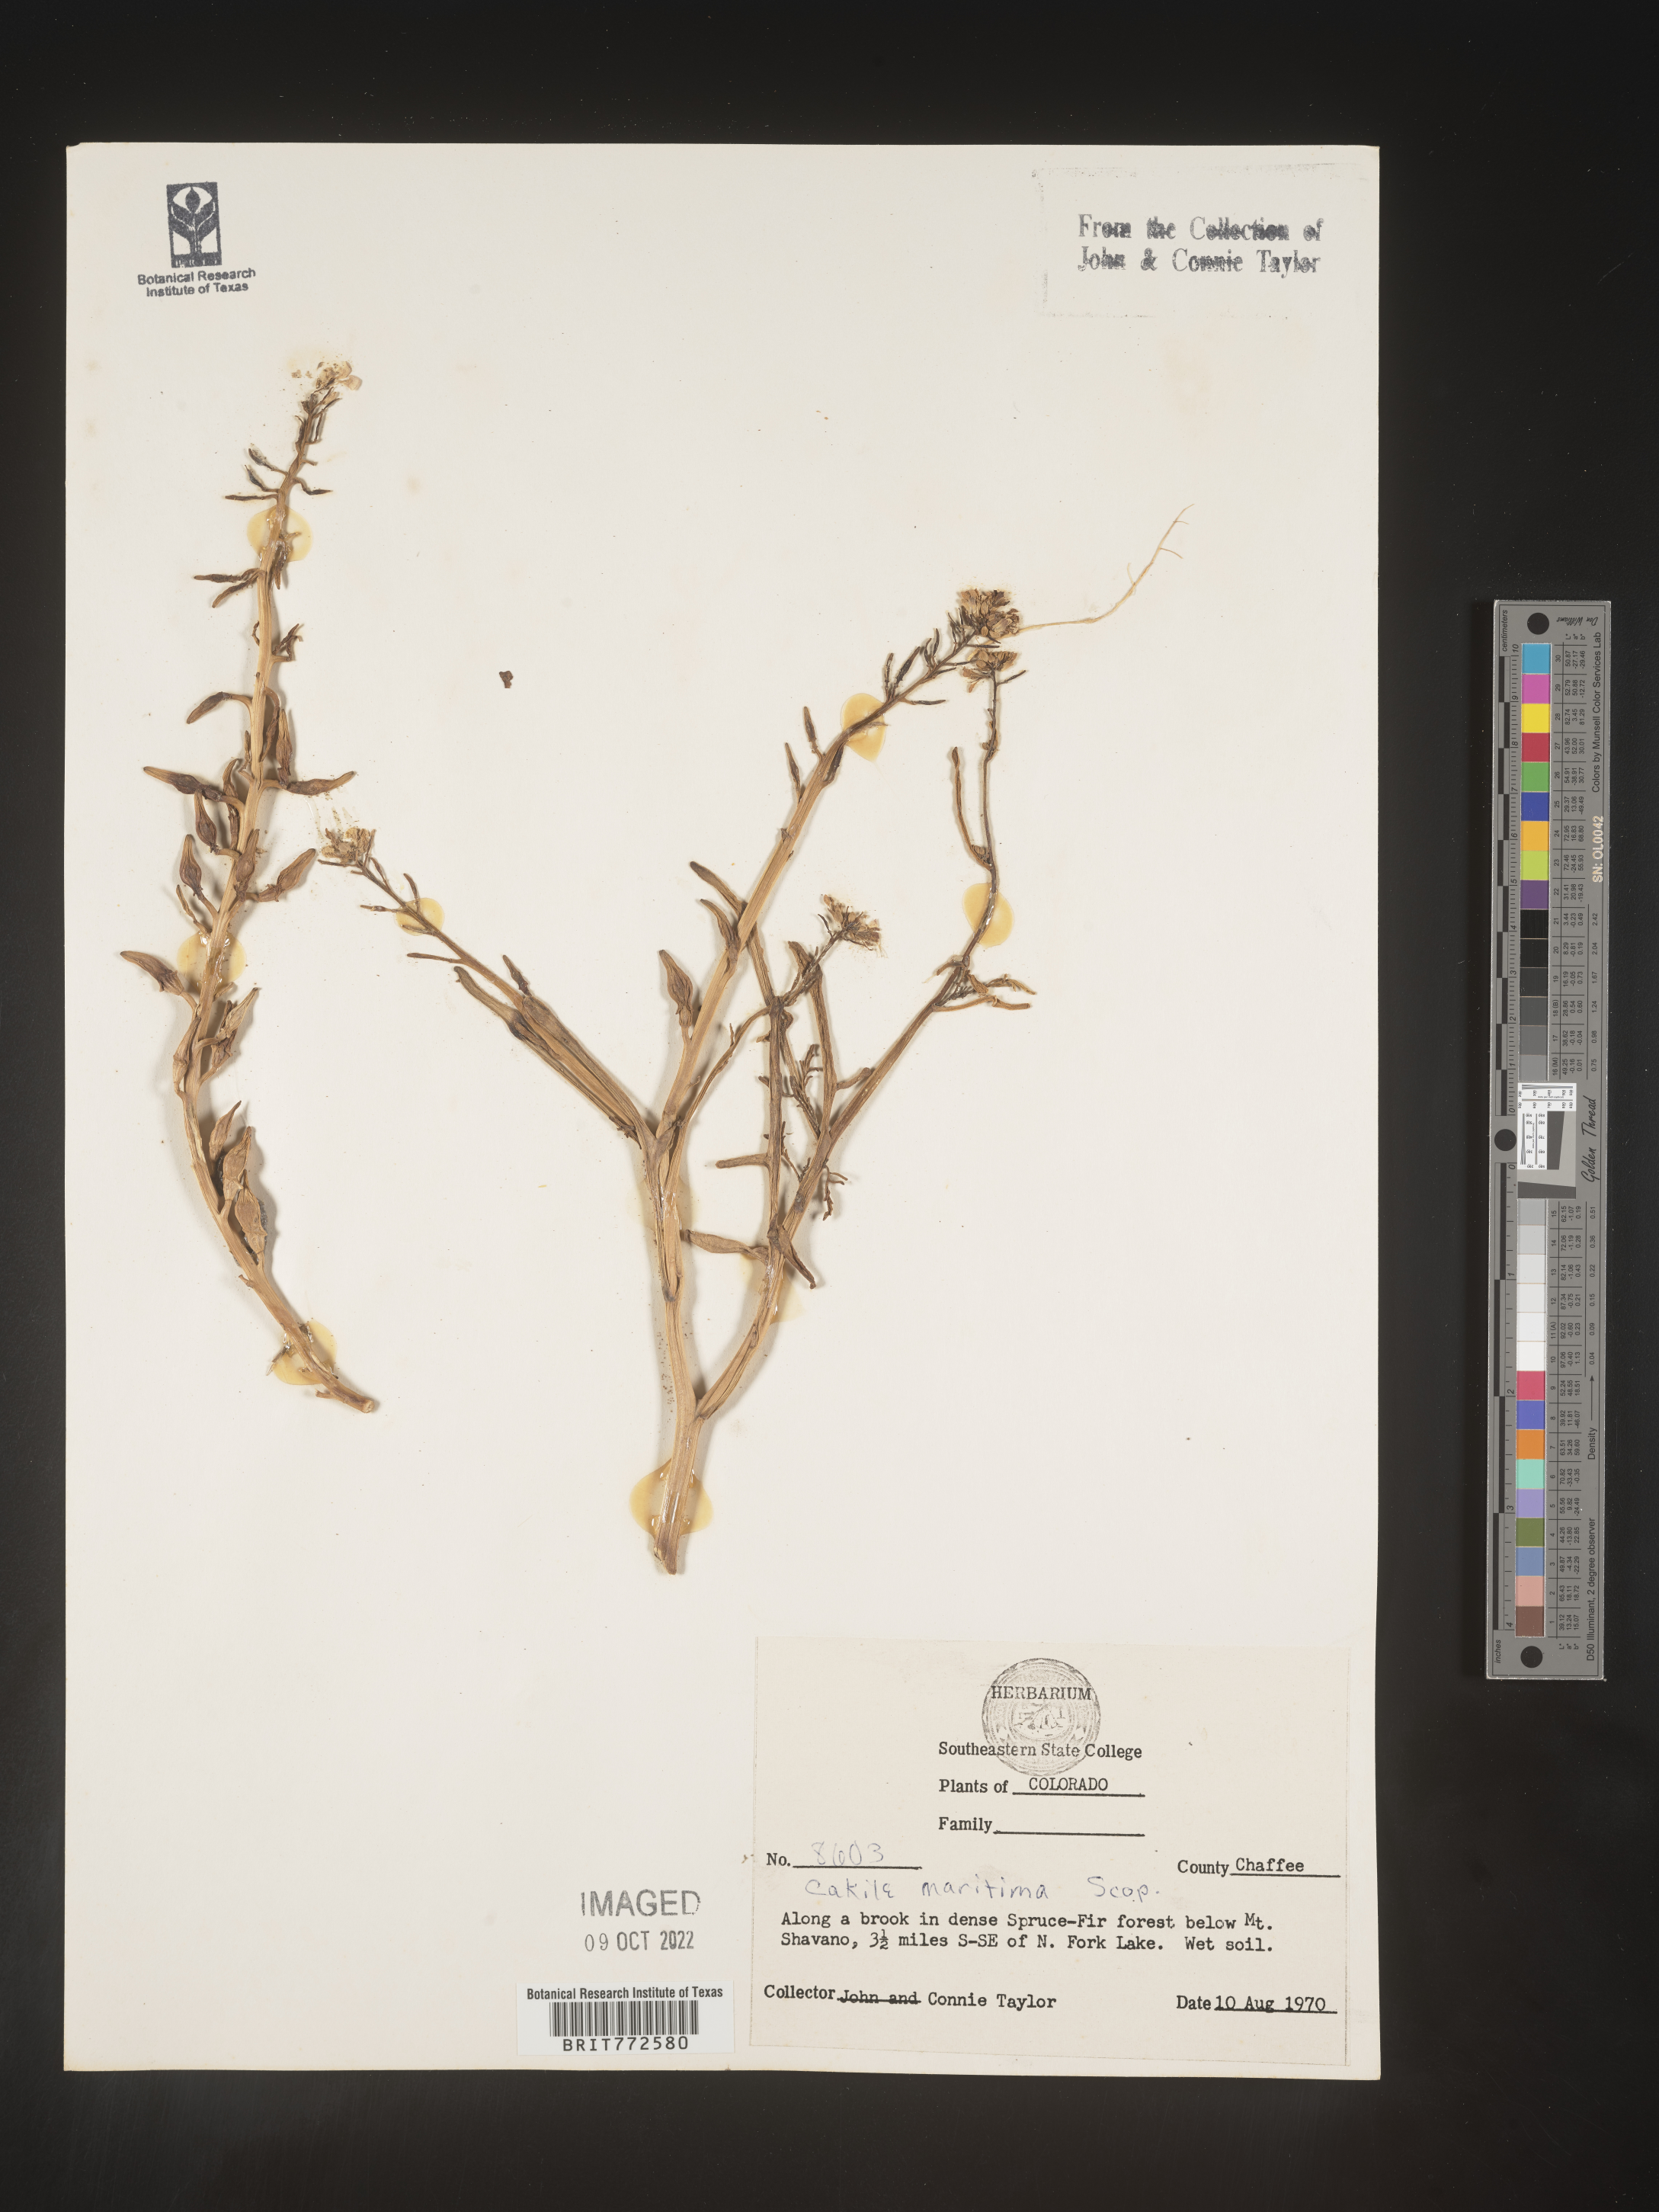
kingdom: Plantae
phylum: Tracheophyta
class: Magnoliopsida
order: Brassicales
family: Brassicaceae
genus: Cakile
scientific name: Cakile maritima
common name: Sea rocket
